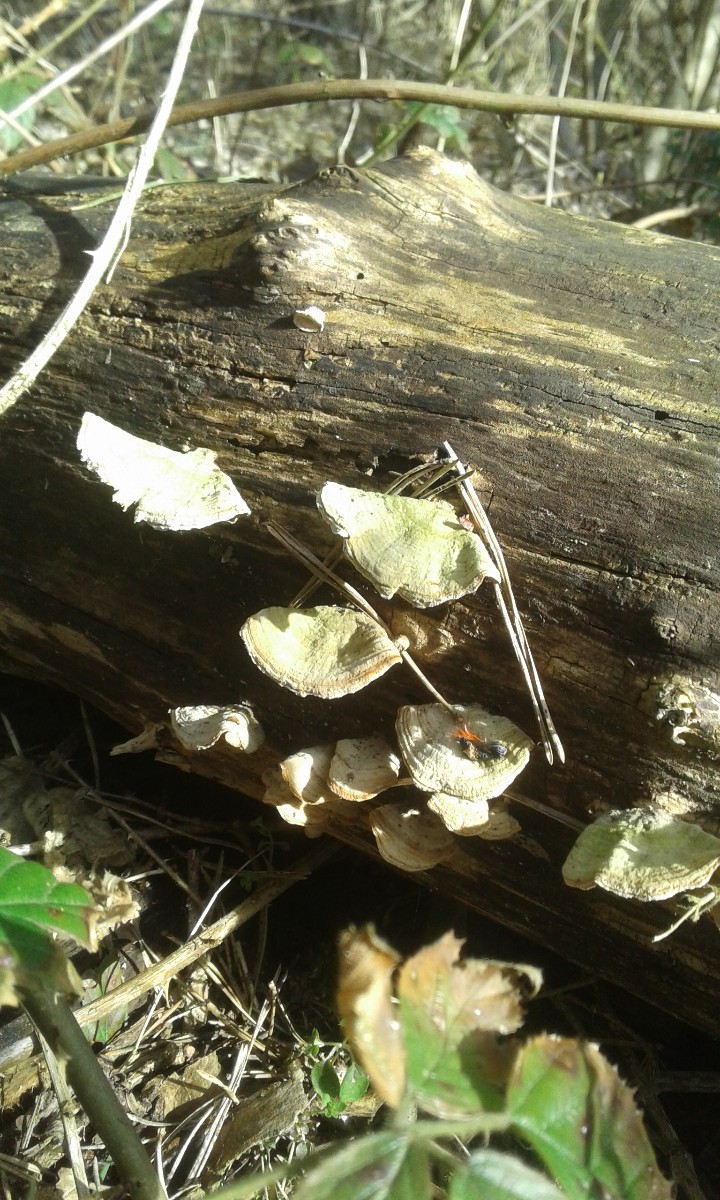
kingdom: Fungi
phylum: Basidiomycota
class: Agaricomycetes
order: Russulales
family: Stereaceae
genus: Stereum
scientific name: Stereum subtomentosum
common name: smuk lædersvamp
